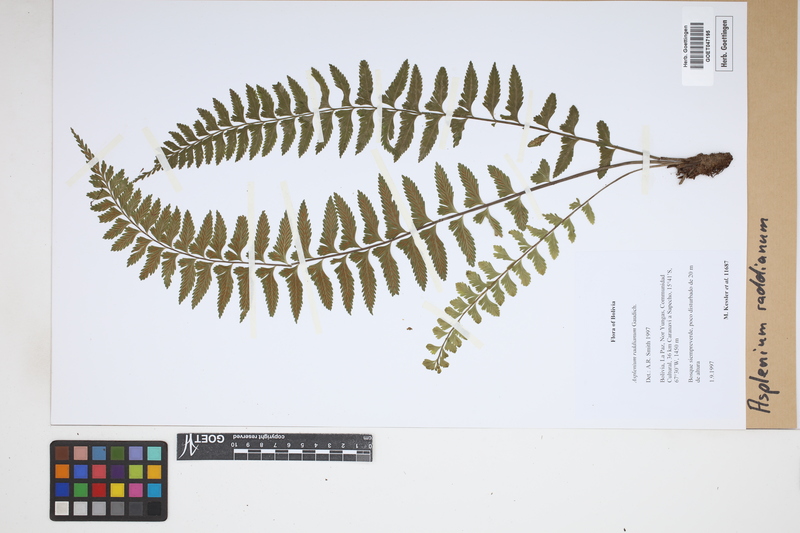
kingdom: Plantae
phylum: Tracheophyta
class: Polypodiopsida
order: Polypodiales
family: Aspleniaceae
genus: Asplenium
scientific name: Asplenium raddianum
